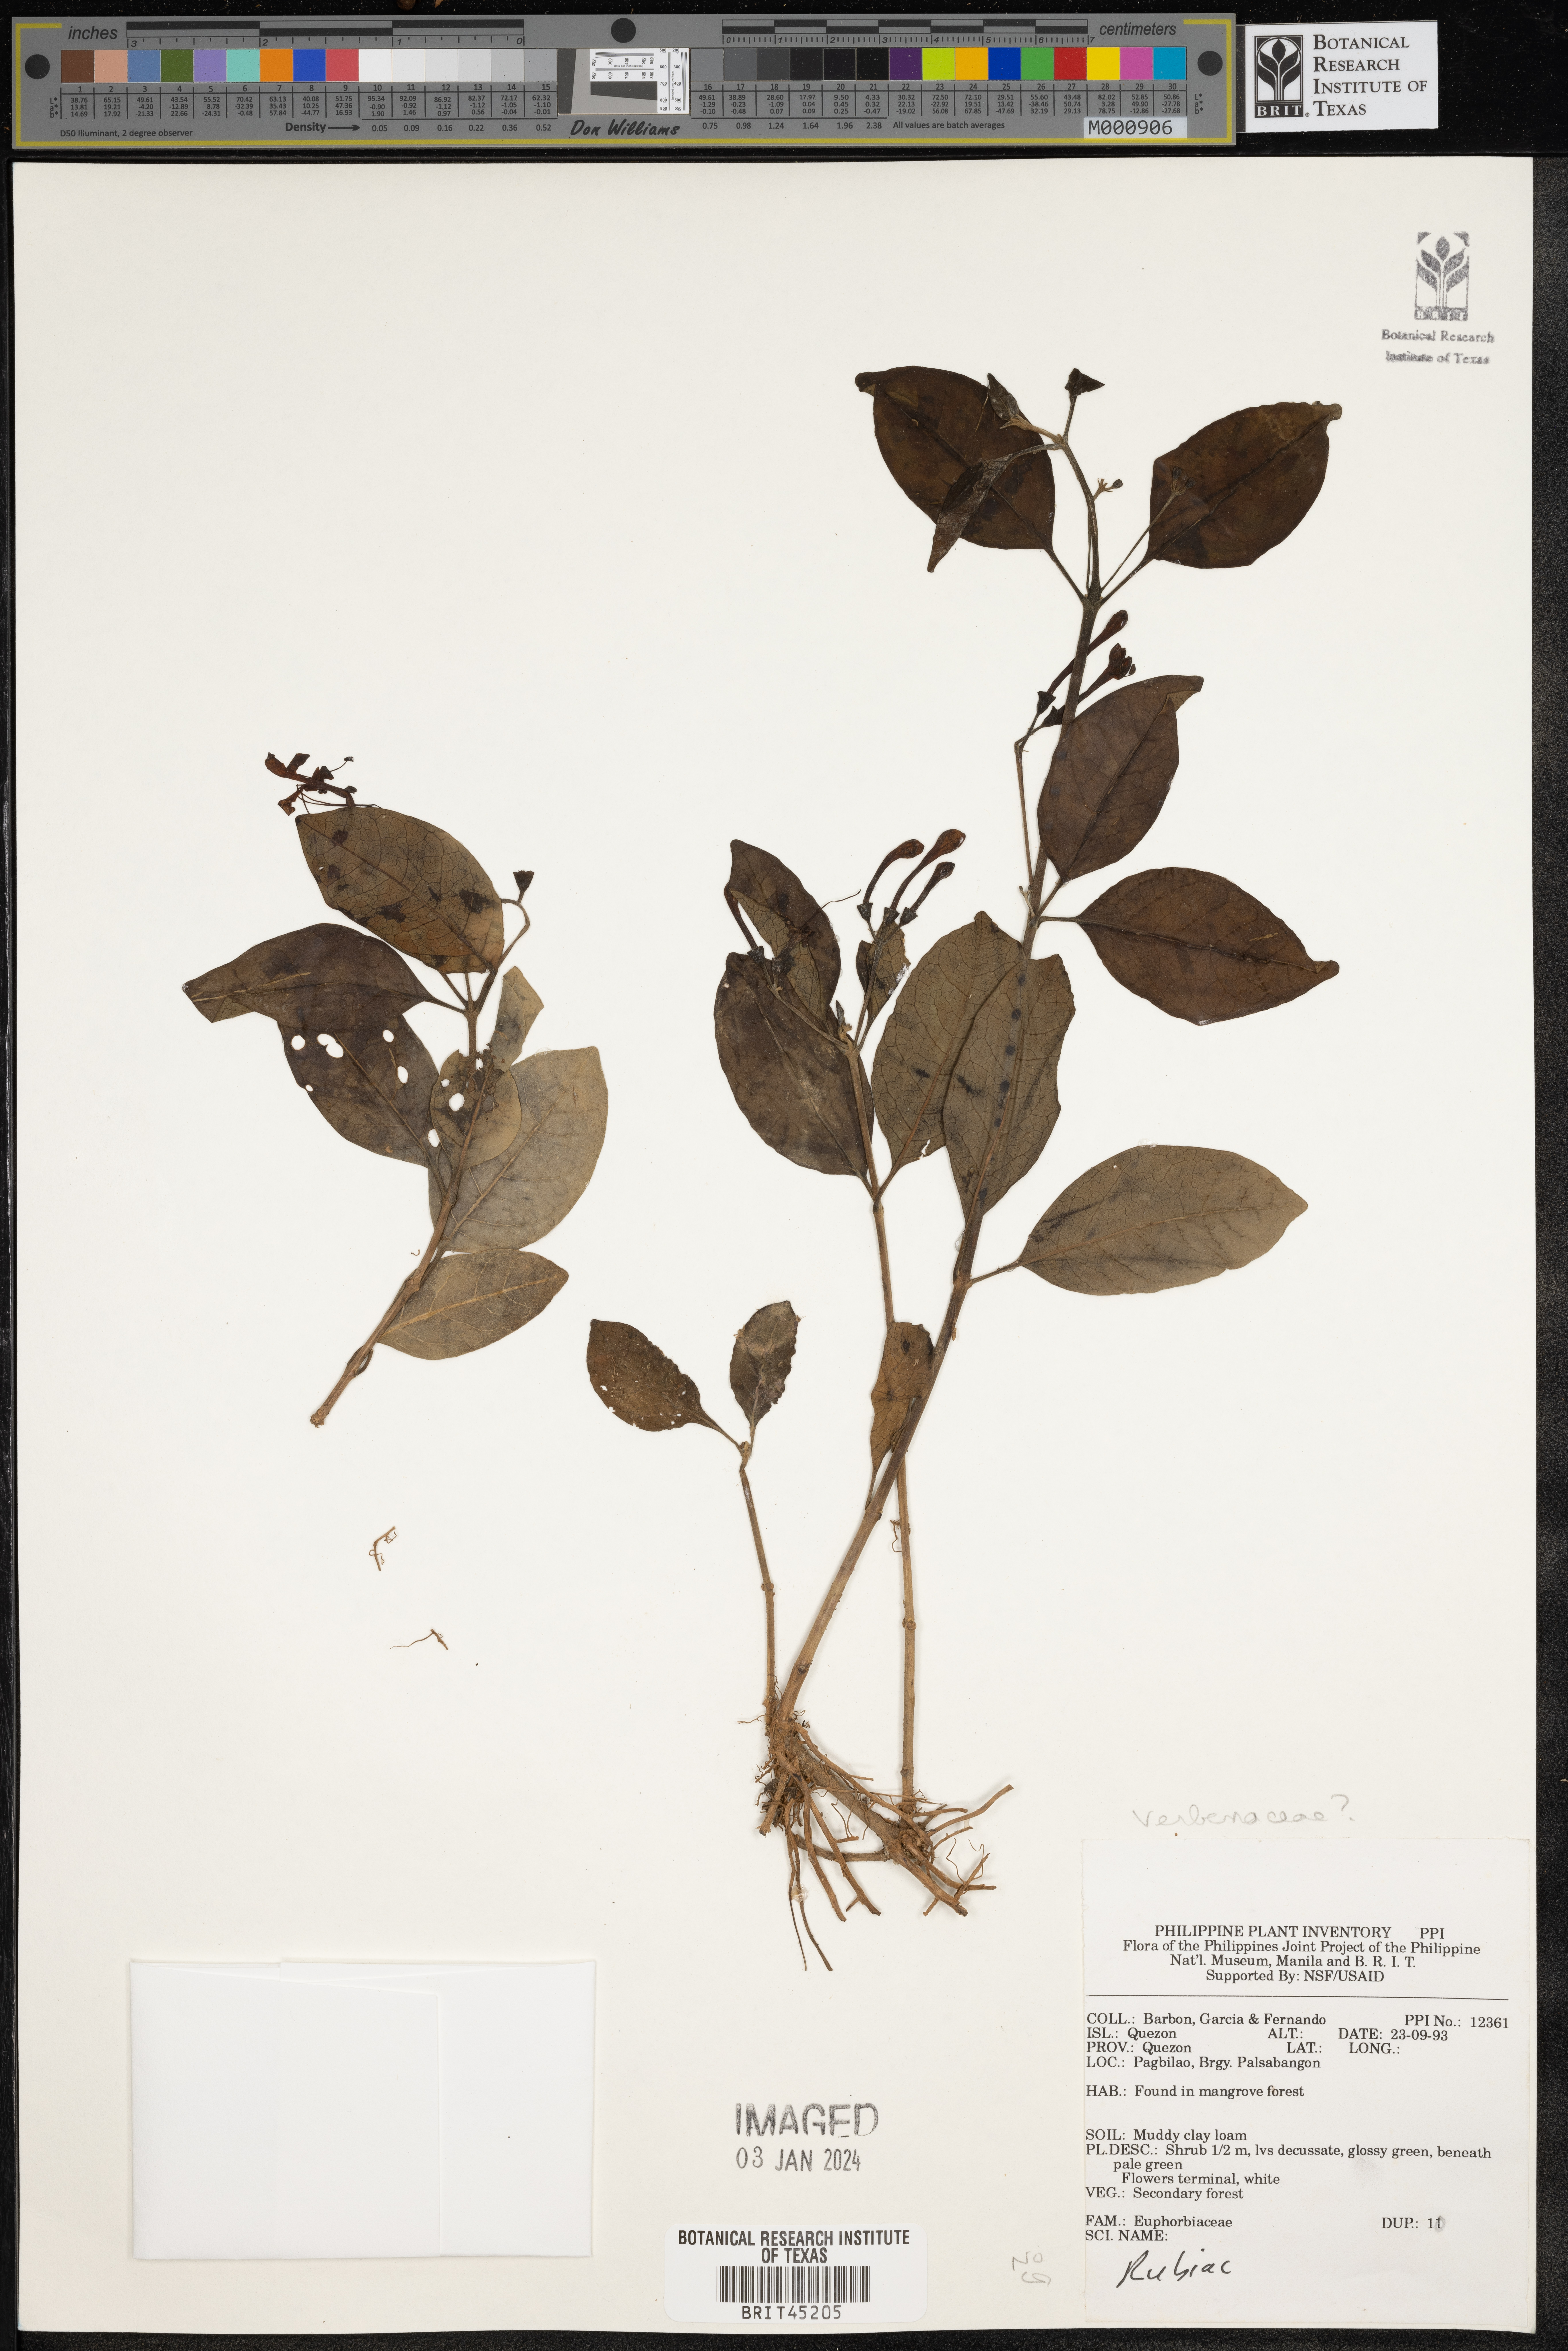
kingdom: Plantae
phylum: Tracheophyta
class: Magnoliopsida
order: Lamiales
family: Verbenaceae
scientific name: Verbenaceae
